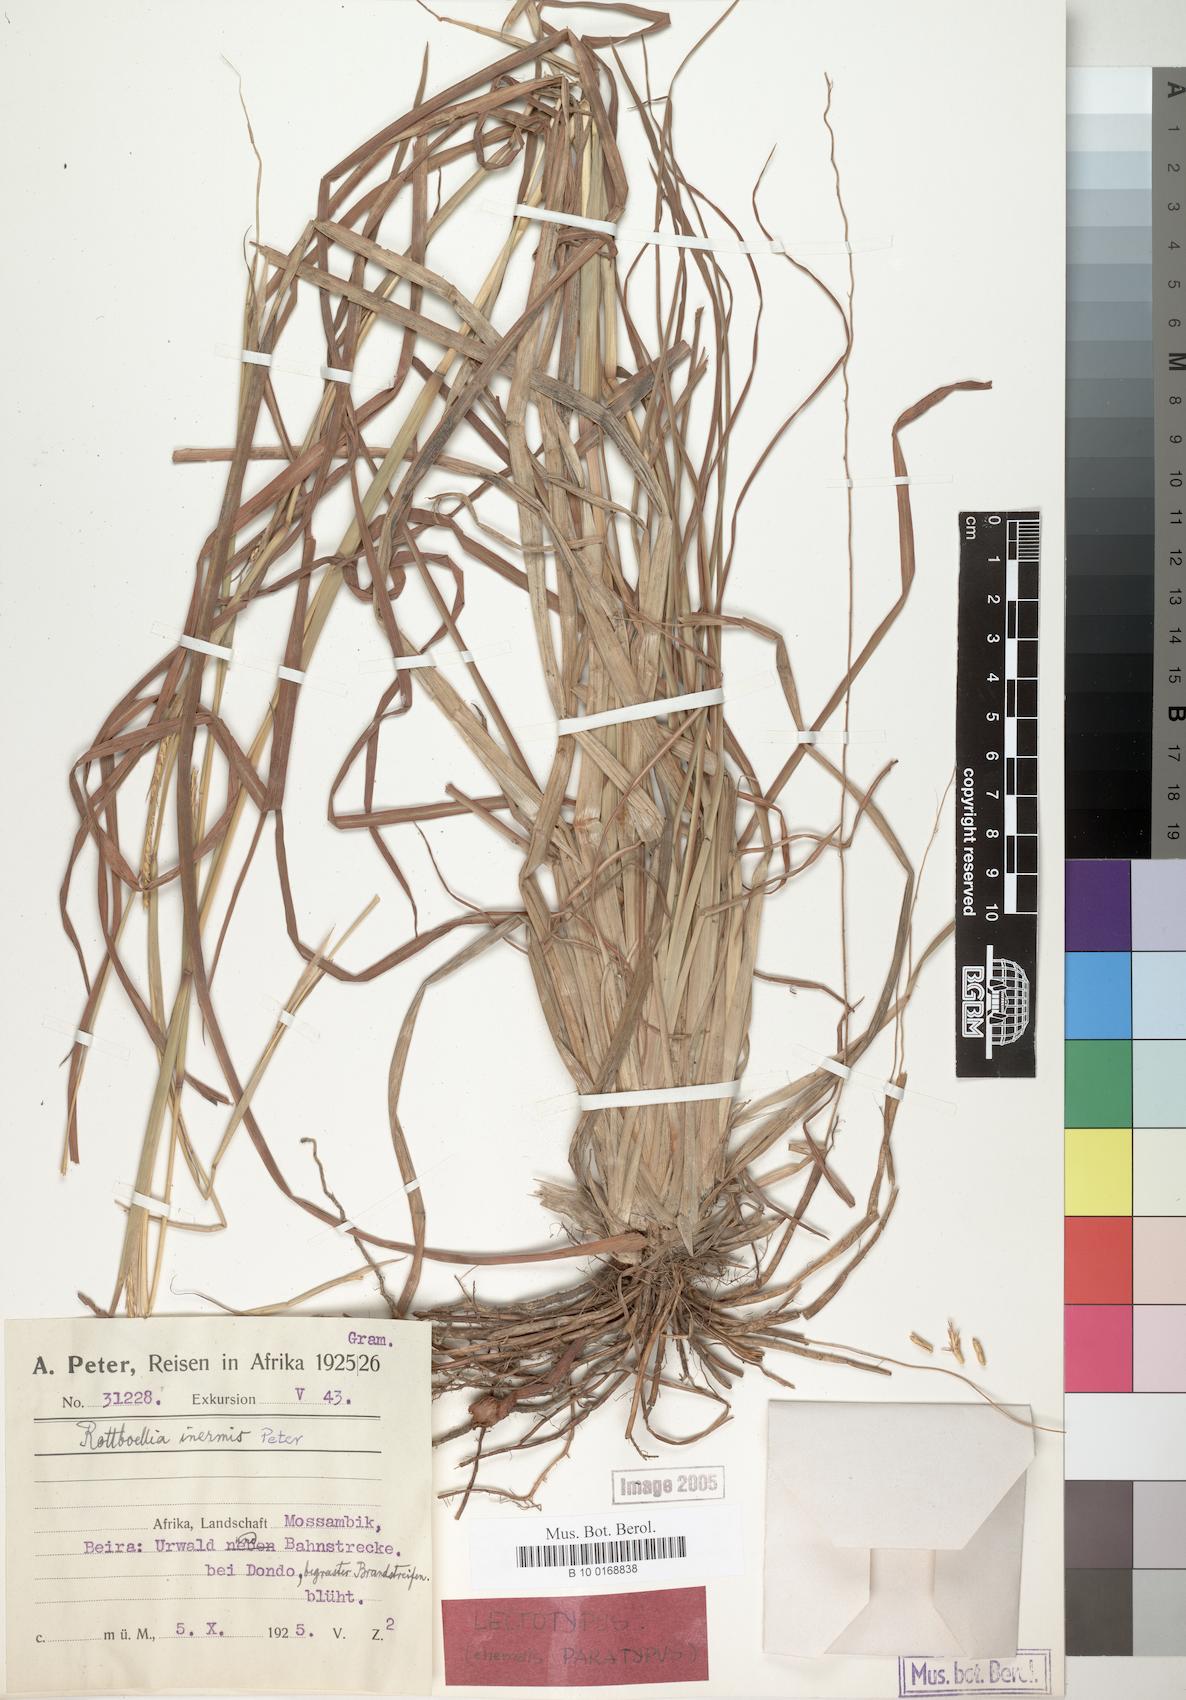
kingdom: Plantae
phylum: Tracheophyta
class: Liliopsida
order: Poales
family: Poaceae
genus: Rottboellia
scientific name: Rottboellia lepidura
